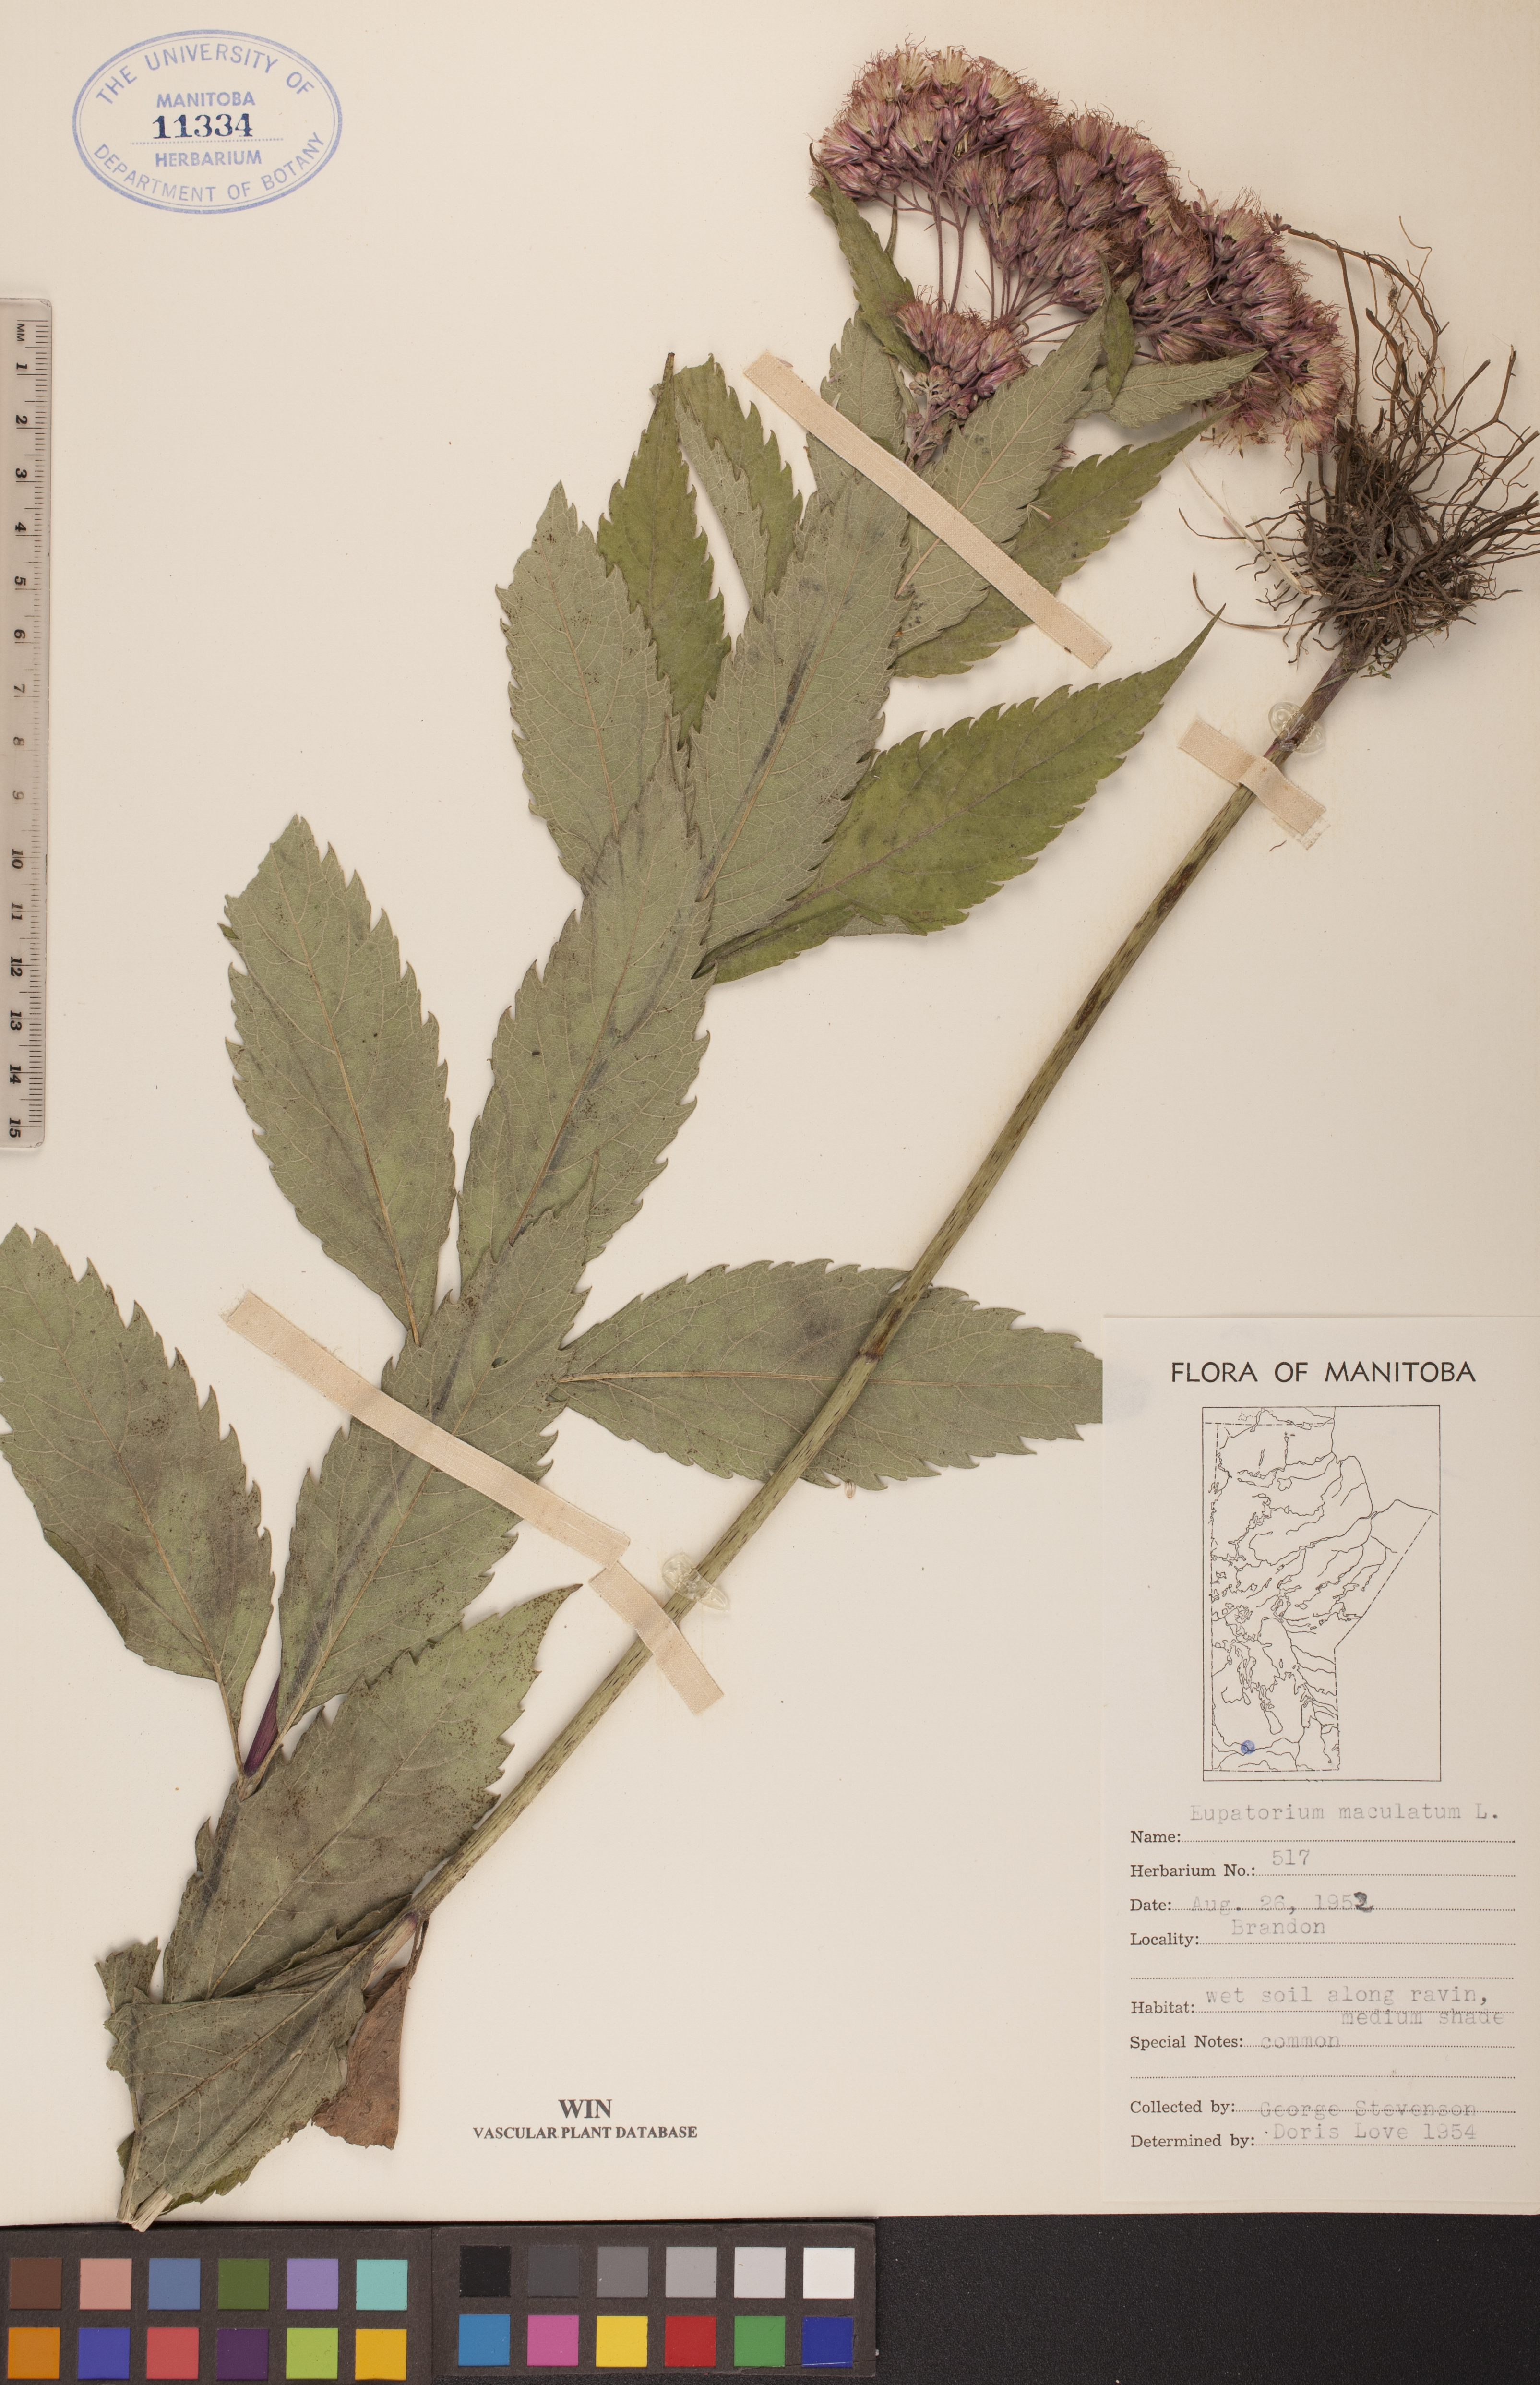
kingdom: Plantae
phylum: Tracheophyta
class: Magnoliopsida
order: Asterales
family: Asteraceae
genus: Eutrochium
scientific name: Eutrochium maculatum
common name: Spotted joe pye weed
